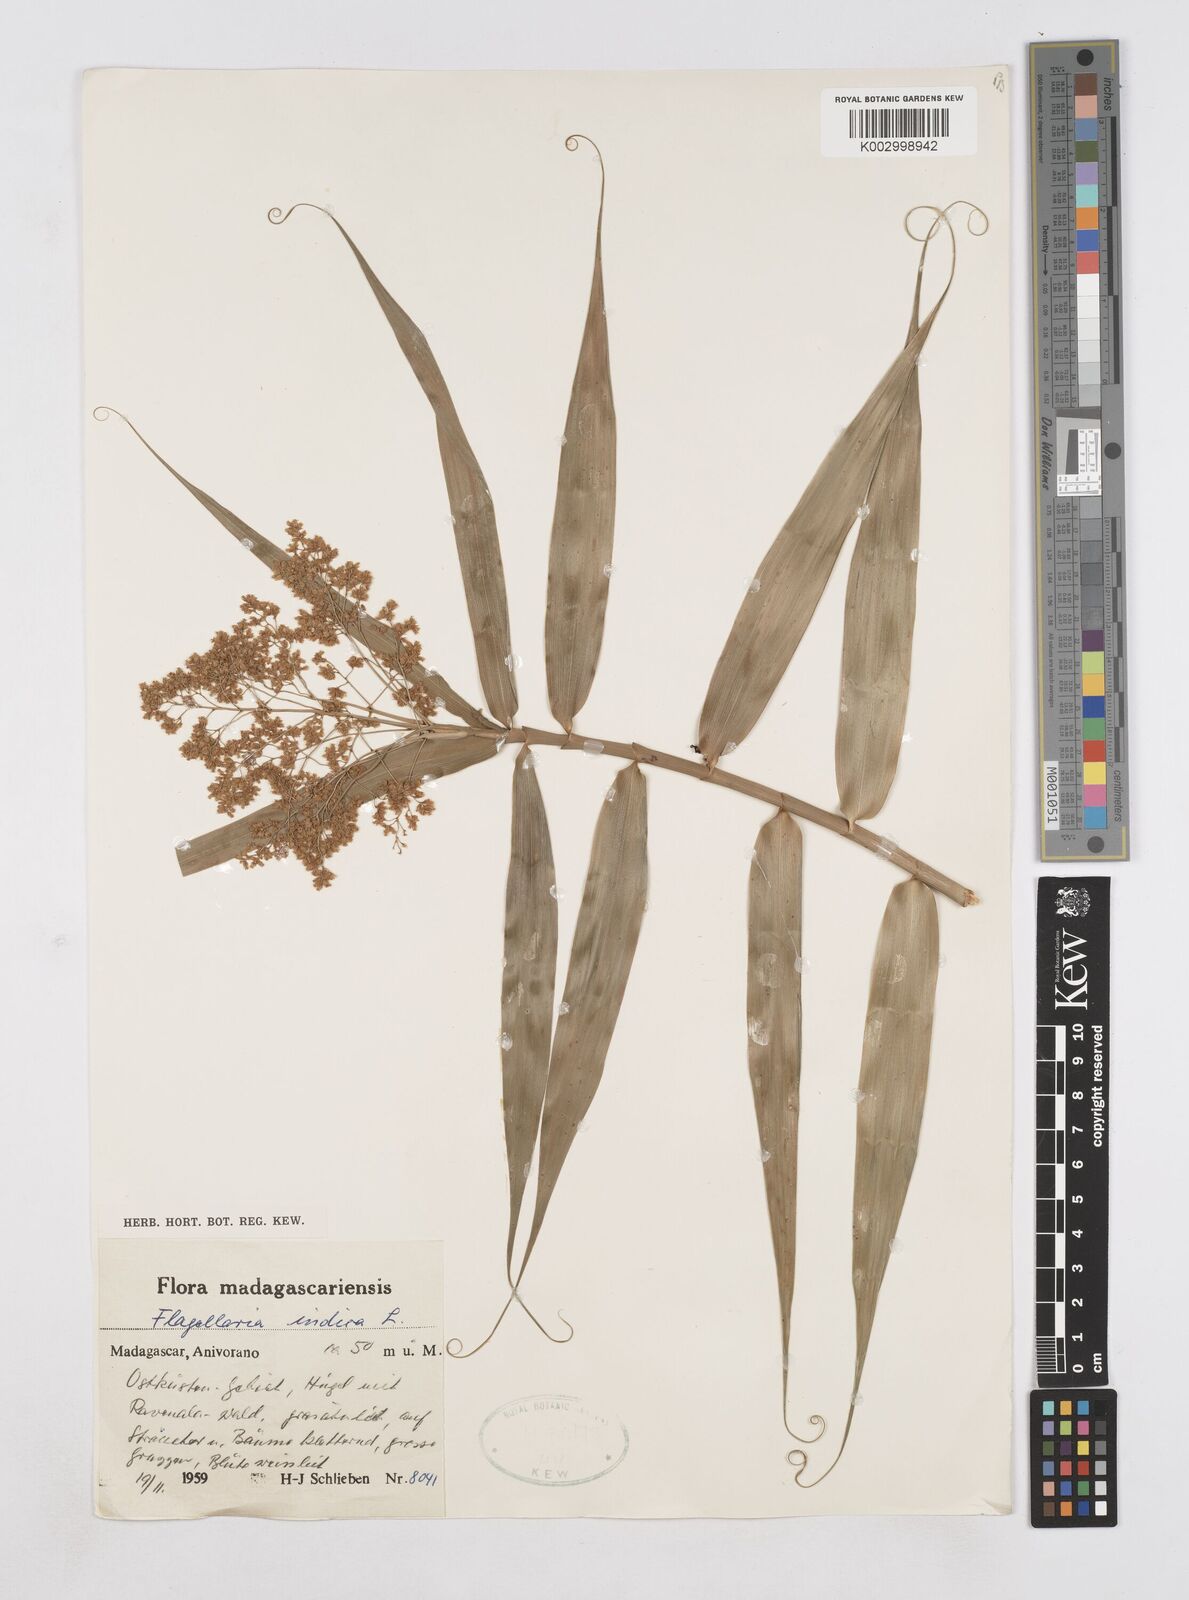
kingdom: Plantae
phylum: Tracheophyta
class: Liliopsida
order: Poales
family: Flagellariaceae
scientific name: Flagellariaceae
